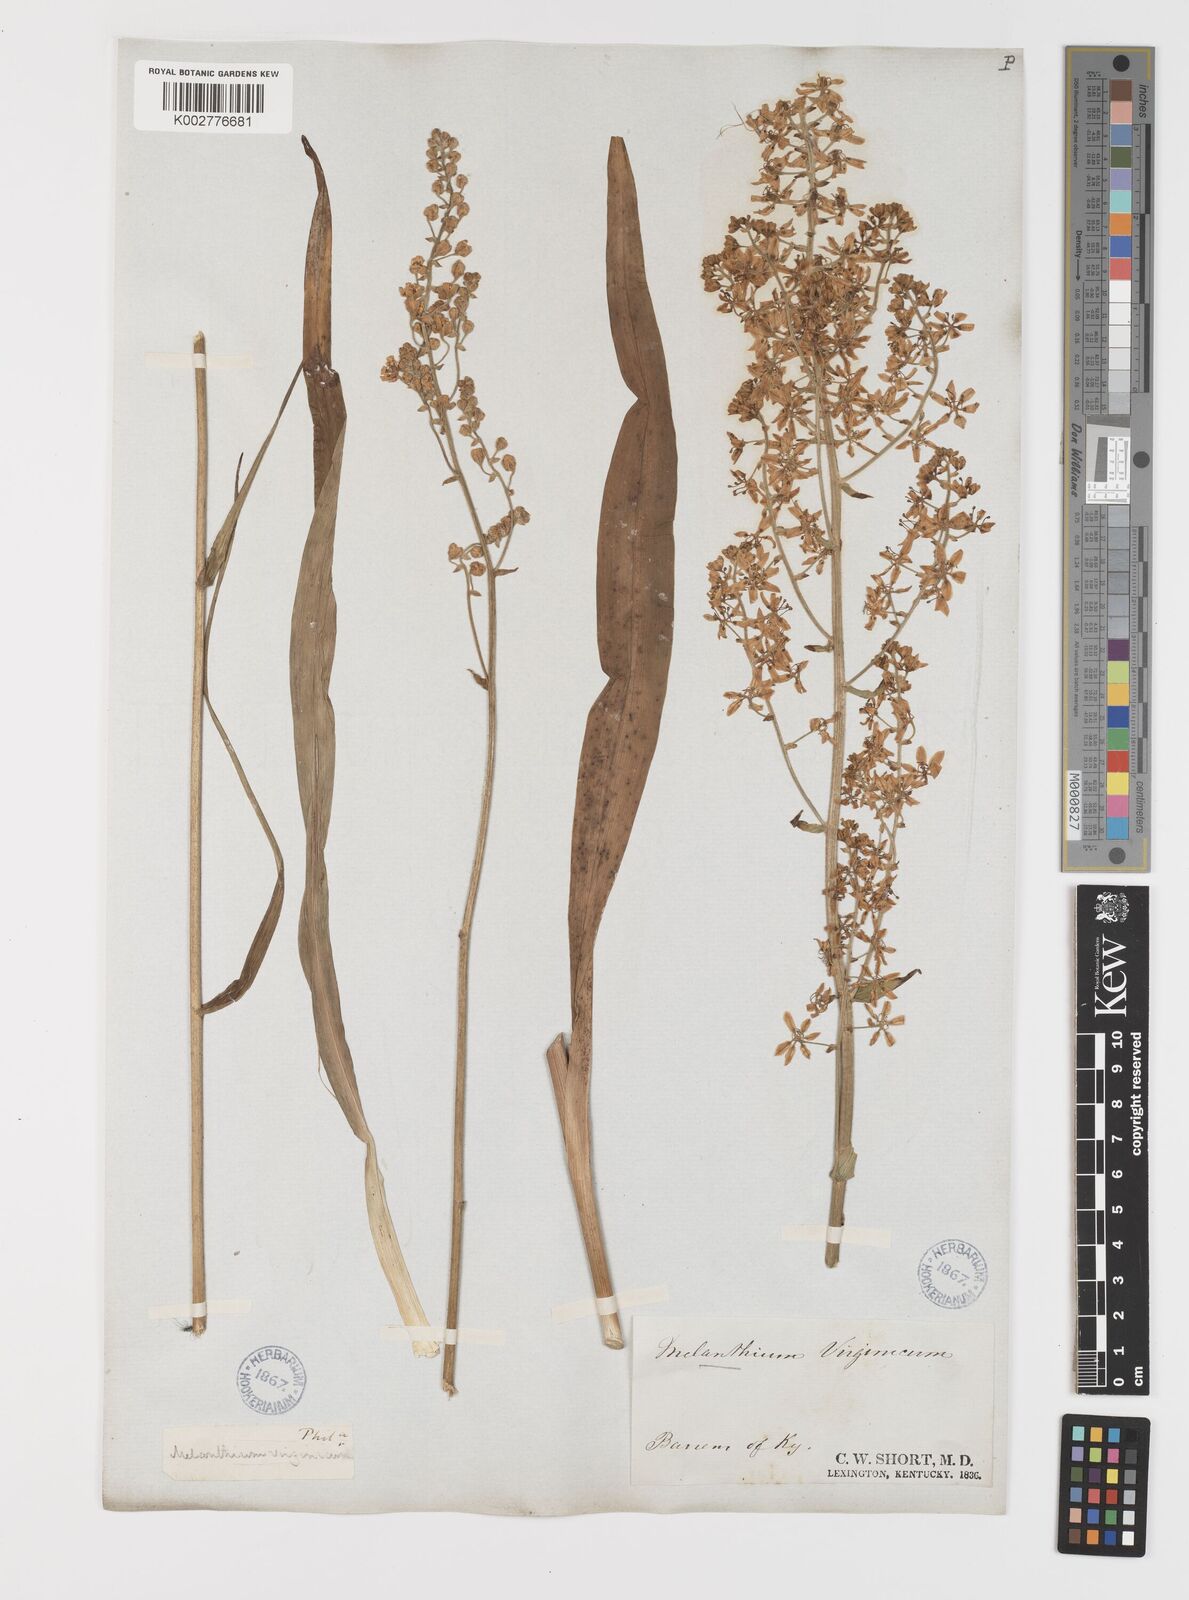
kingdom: Plantae
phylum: Tracheophyta
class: Liliopsida
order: Liliales
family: Melanthiaceae
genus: Melanthium
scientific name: Melanthium virginicum
